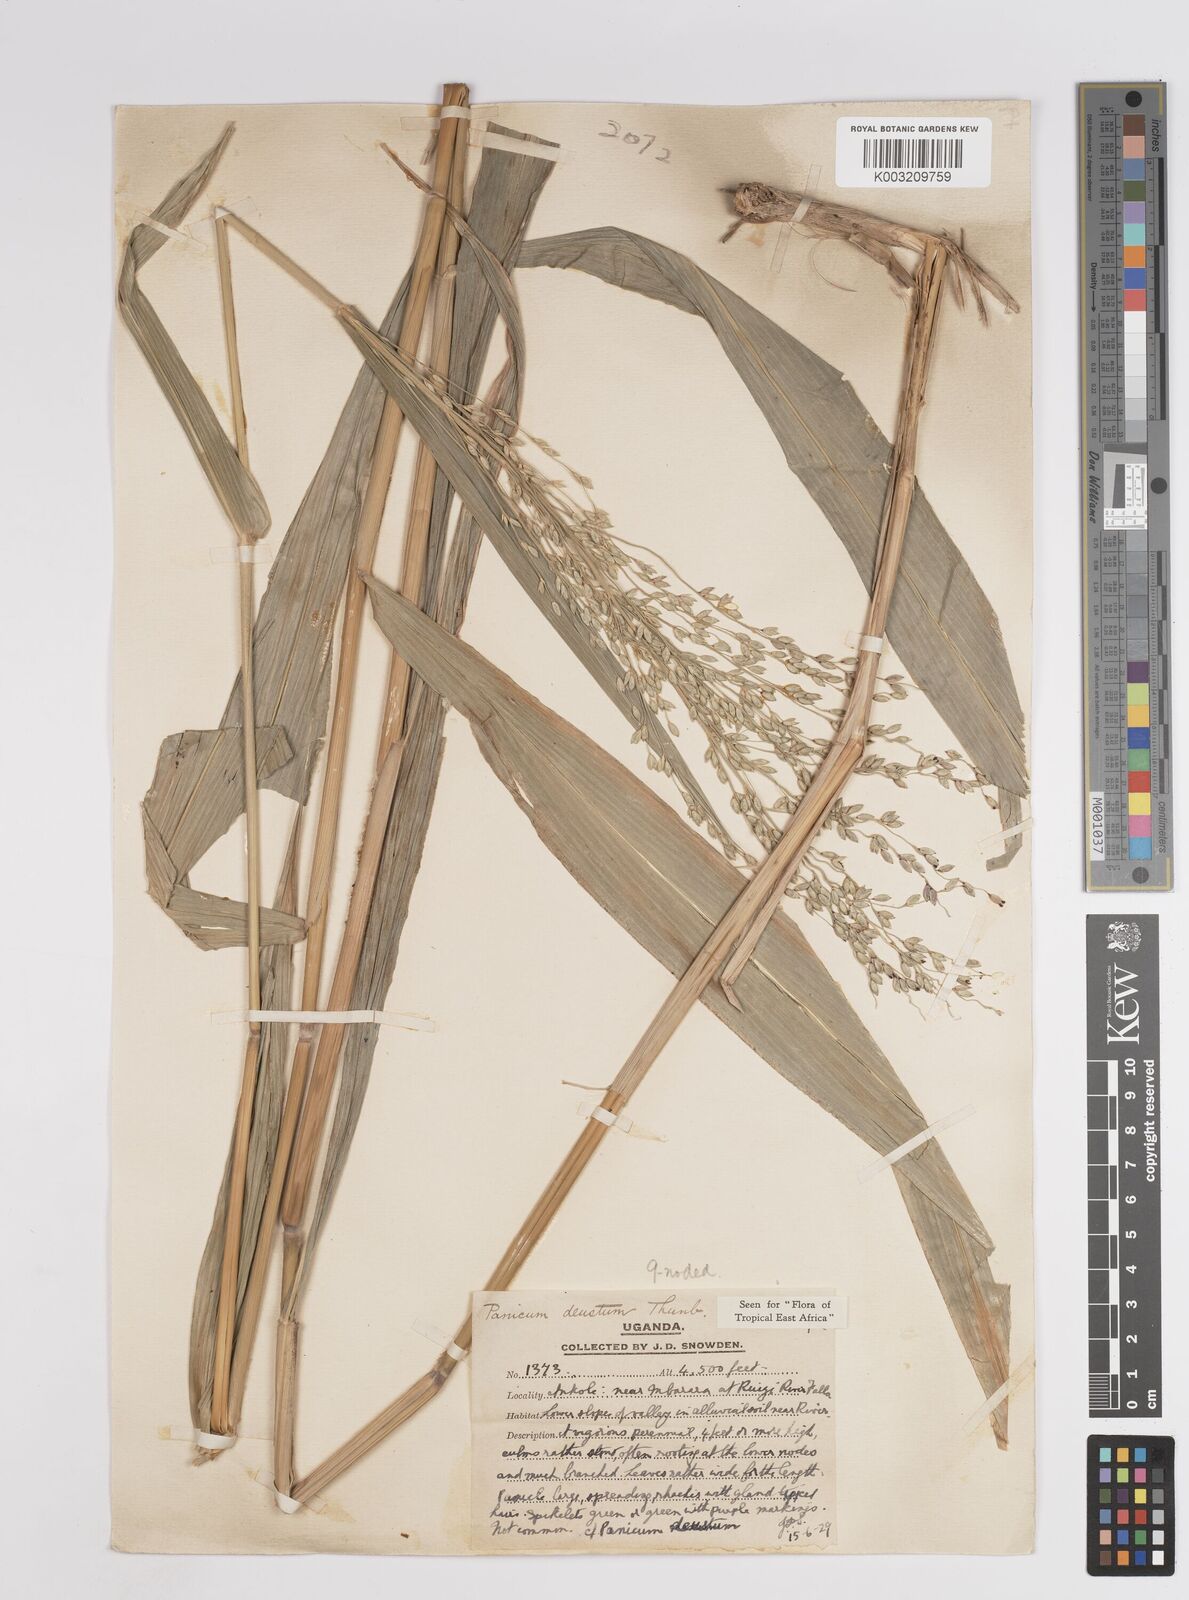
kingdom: Plantae
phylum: Tracheophyta
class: Liliopsida
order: Poales
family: Poaceae
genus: Panicum
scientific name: Panicum deustum
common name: Reed panicum
